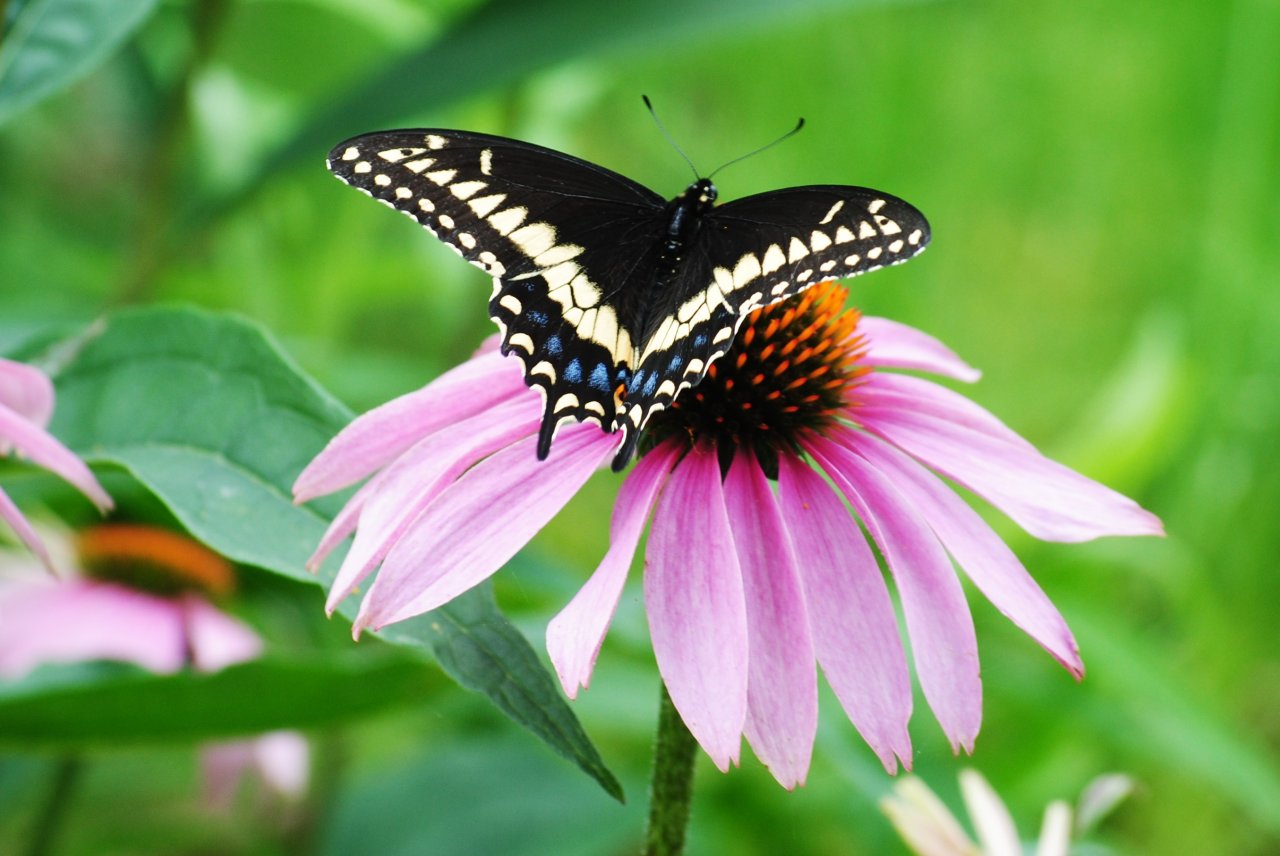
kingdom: Animalia
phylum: Arthropoda
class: Insecta
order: Lepidoptera
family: Papilionidae
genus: Papilio
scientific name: Papilio polyxenes
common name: Black Swallowtail
